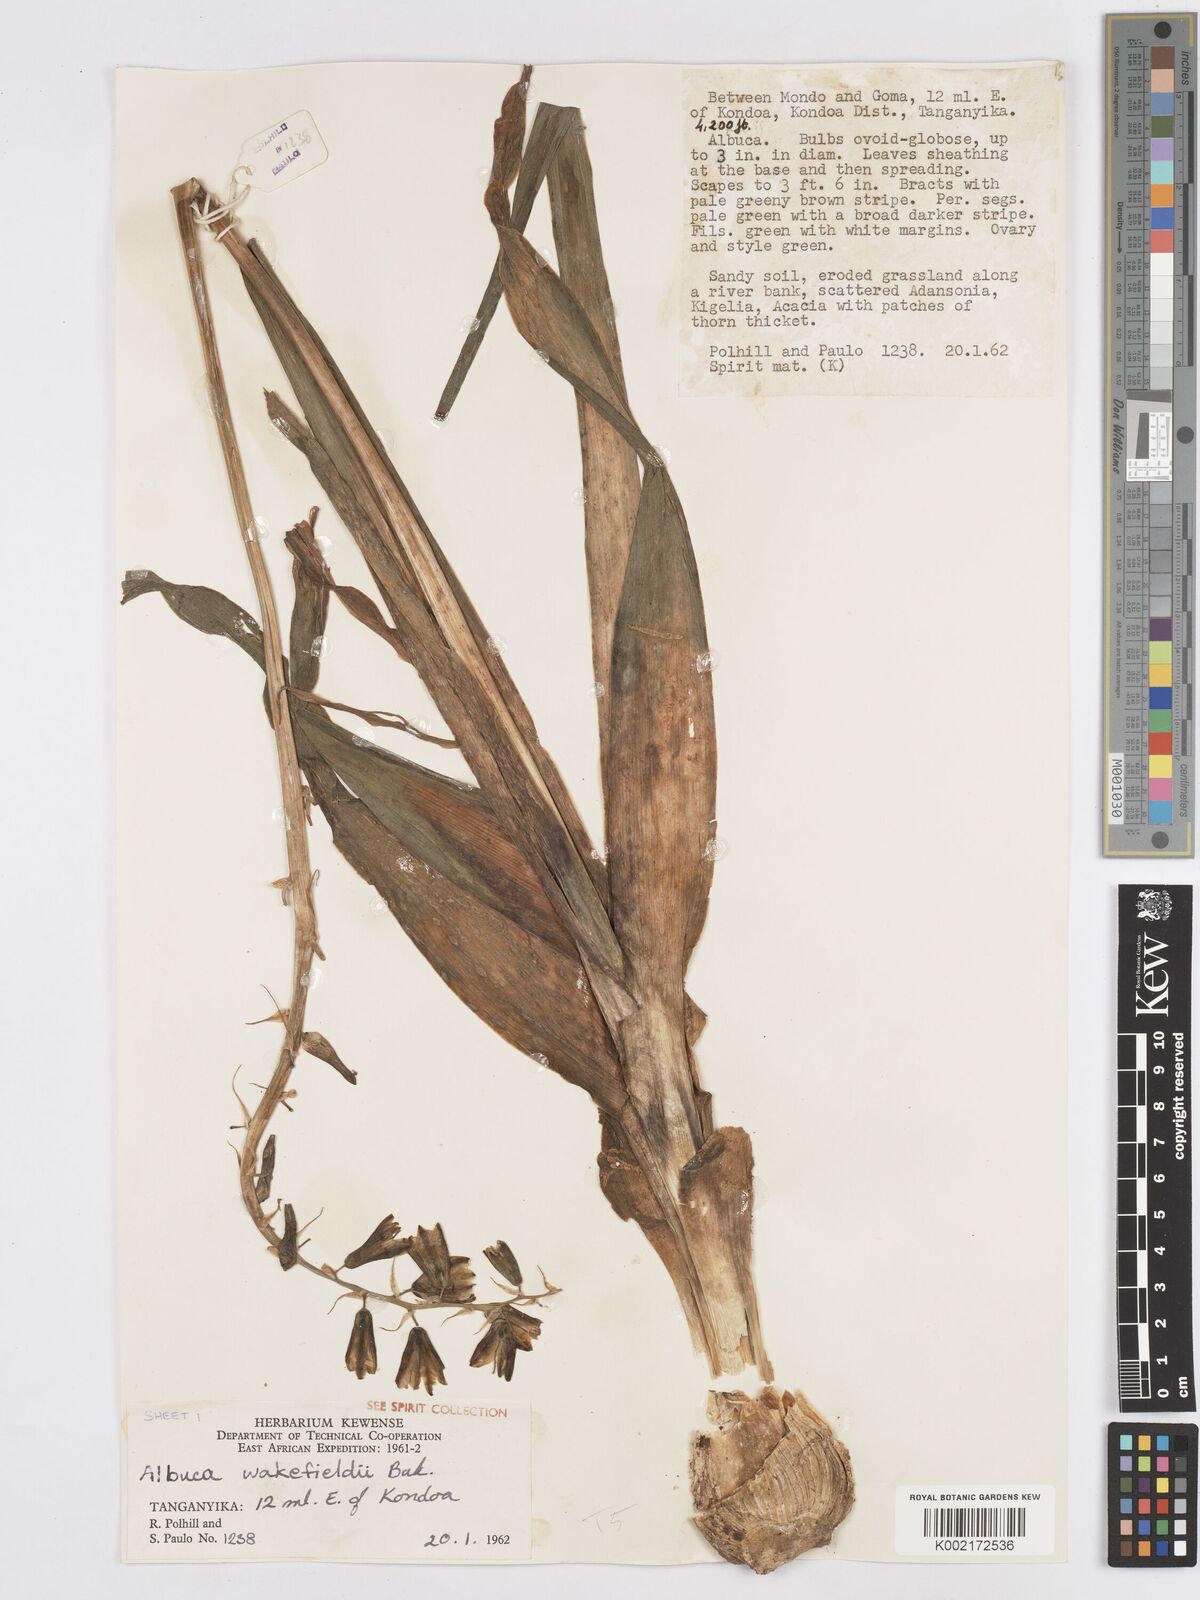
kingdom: Plantae
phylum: Tracheophyta
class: Liliopsida
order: Asparagales
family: Asparagaceae
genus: Albuca
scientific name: Albuca abyssinica
